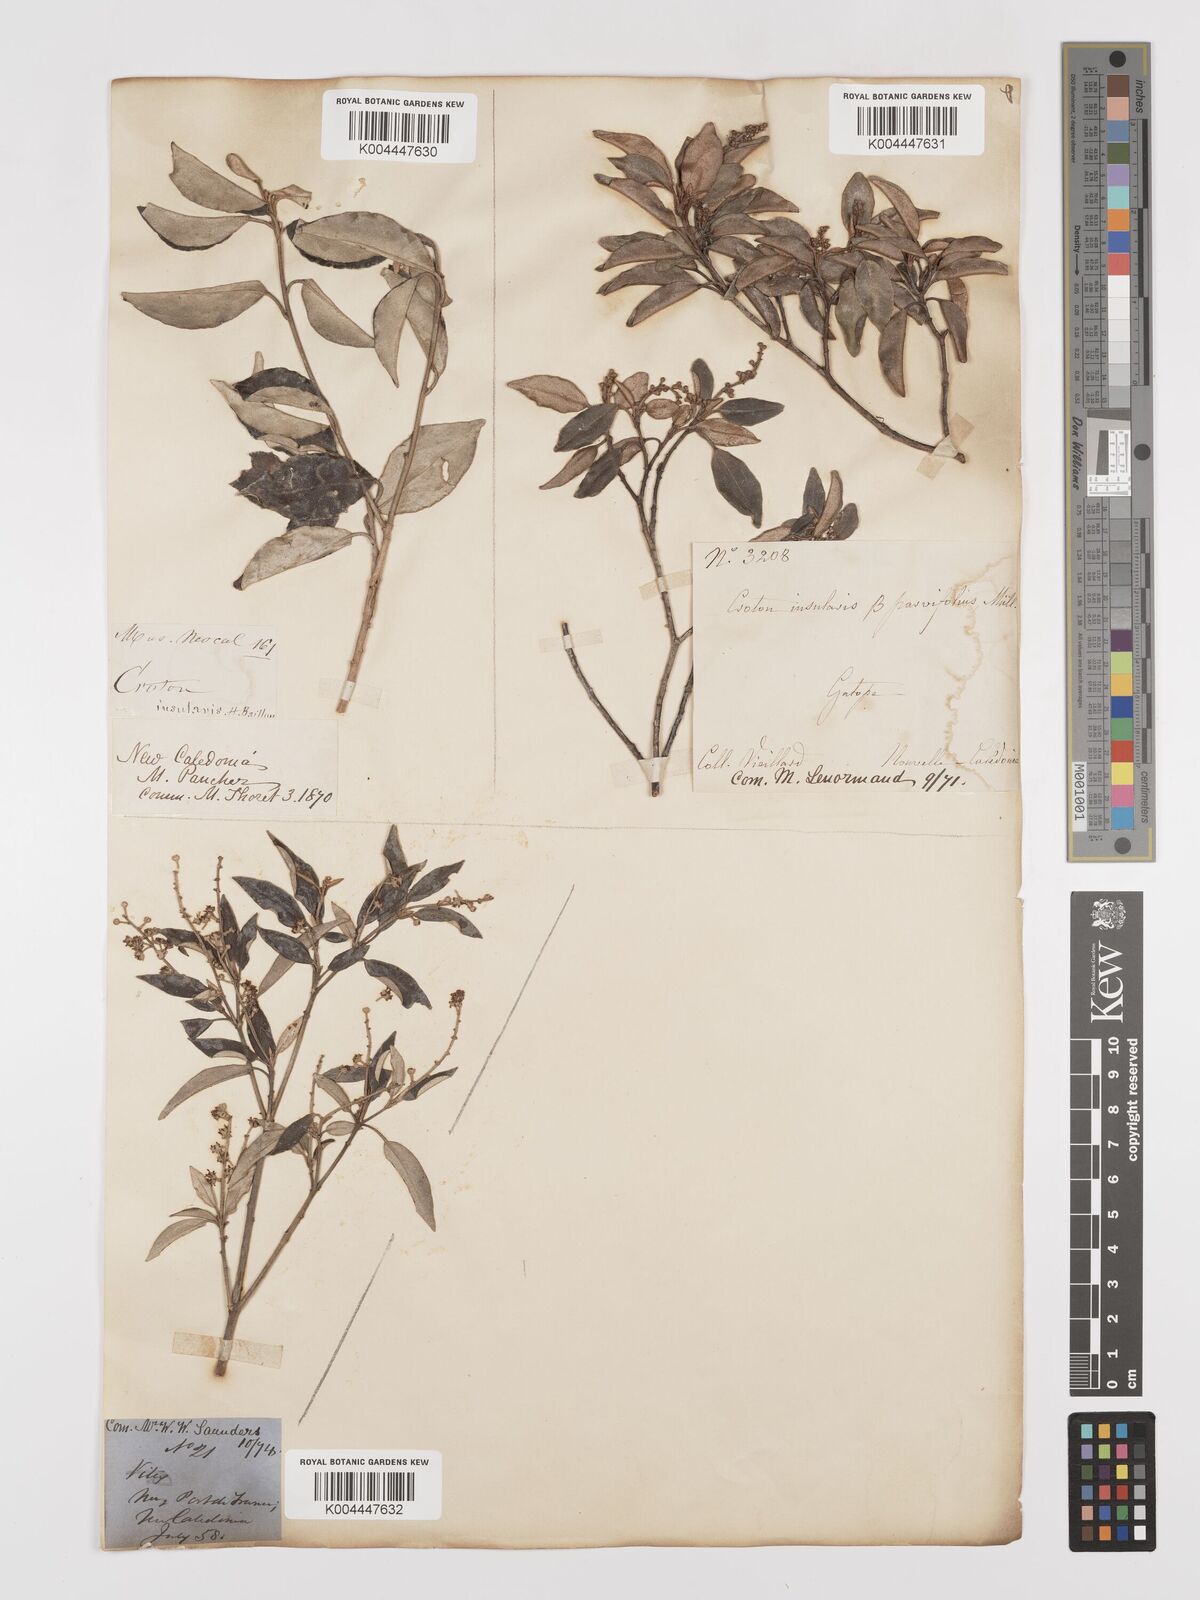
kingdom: Plantae
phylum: Tracheophyta
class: Magnoliopsida
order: Malpighiales
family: Euphorbiaceae
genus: Croton
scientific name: Croton insularis
